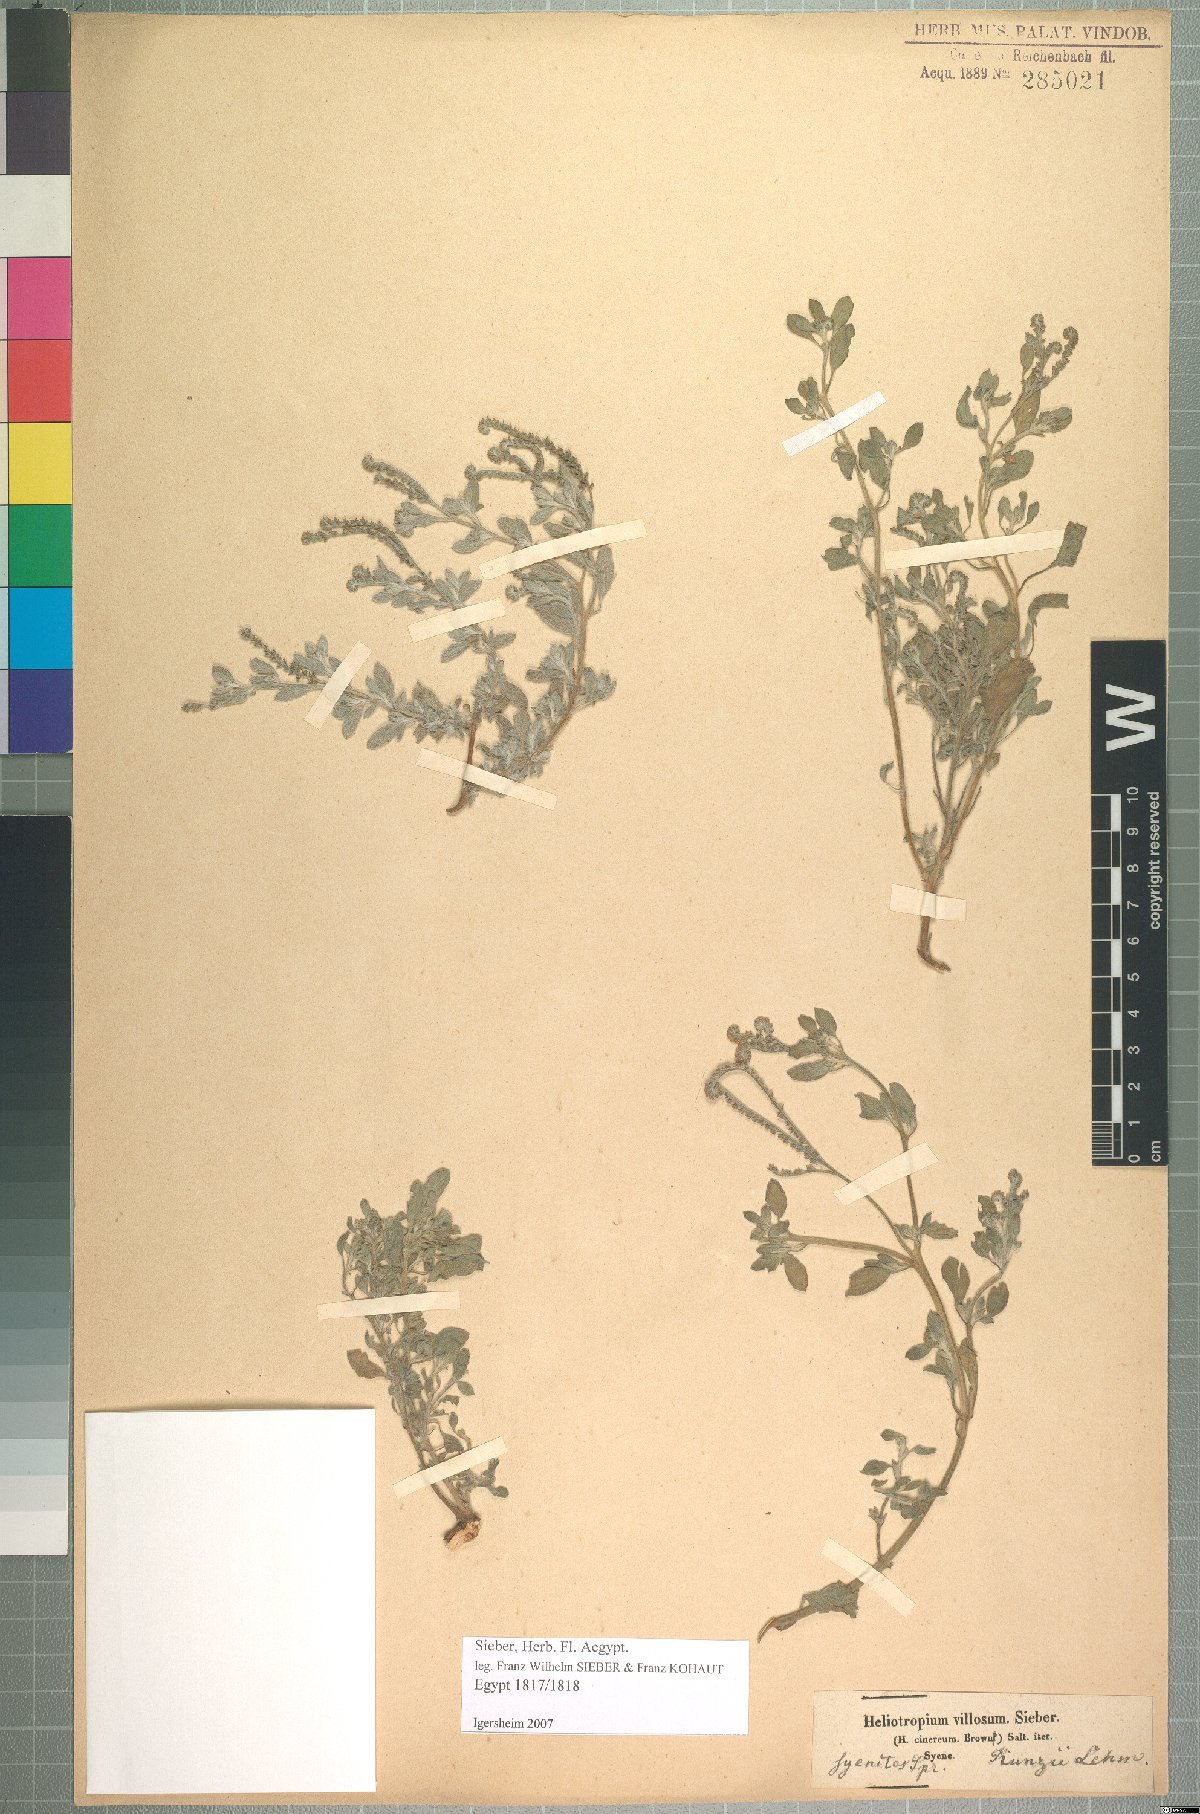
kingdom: Plantae
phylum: Tracheophyta
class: Magnoliopsida
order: Boraginales
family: Heliotropiaceae
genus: Euploca
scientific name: Euploca ovalifolia
